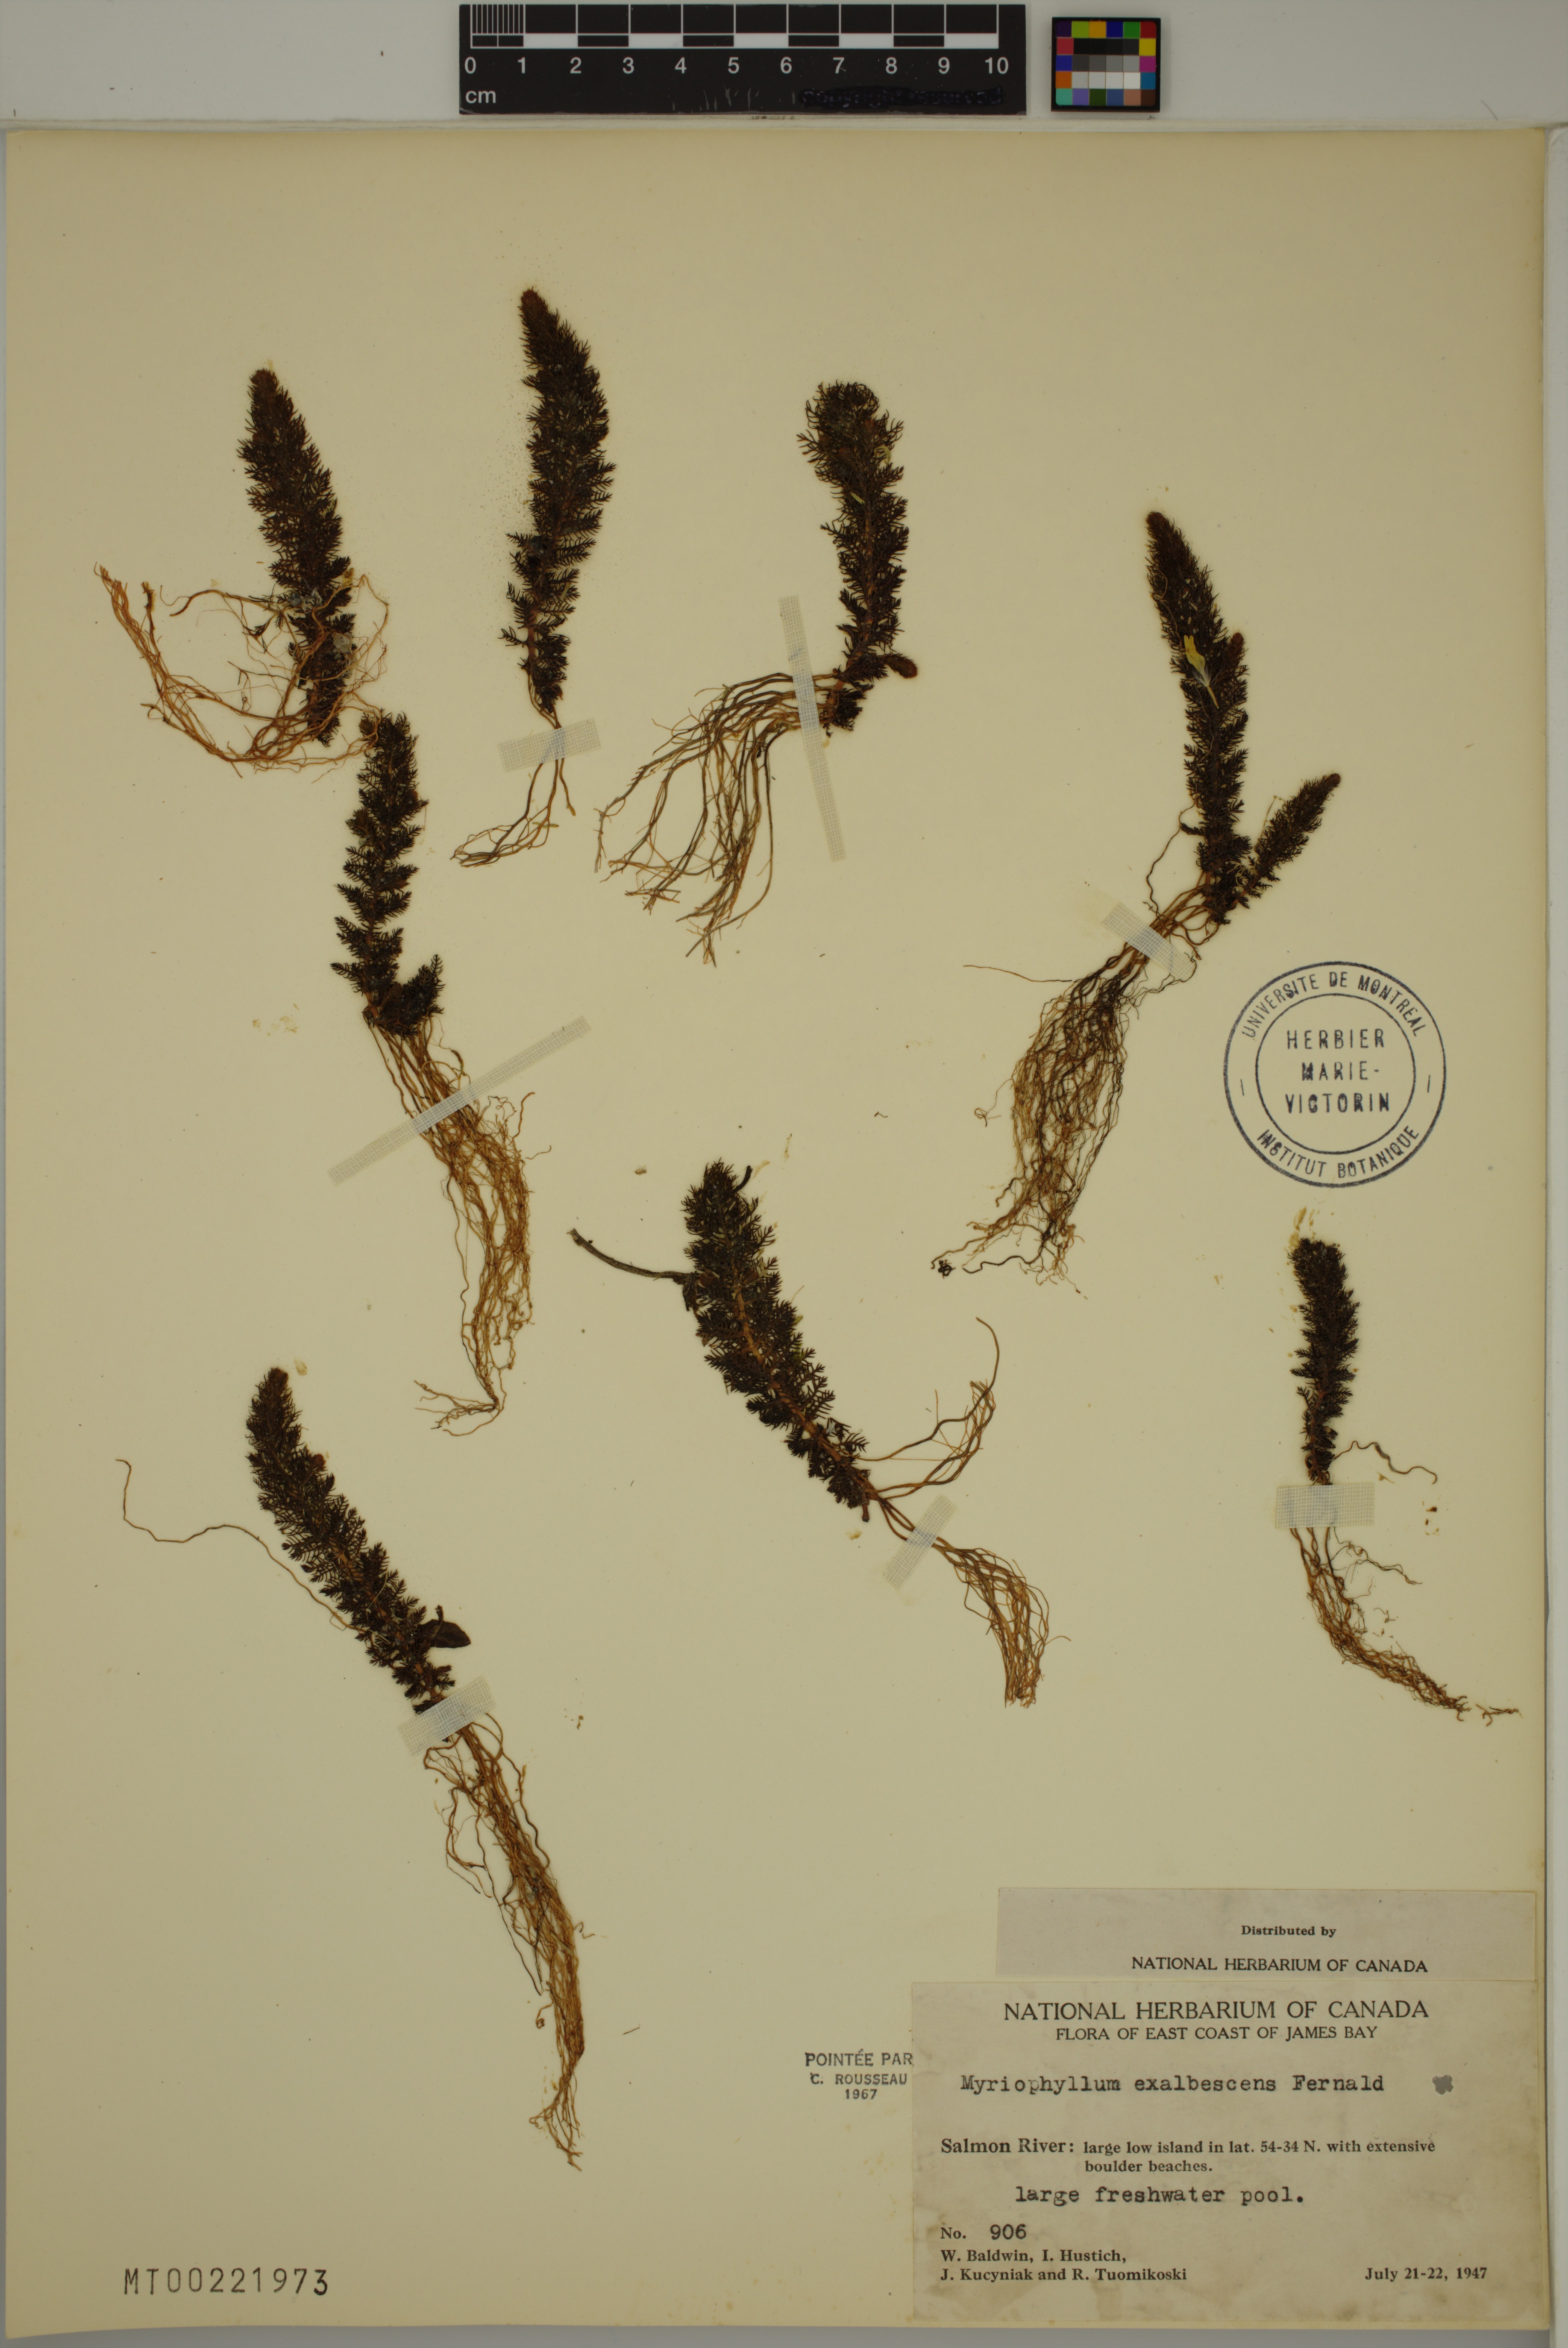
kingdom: Plantae
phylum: Tracheophyta
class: Magnoliopsida
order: Saxifragales
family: Haloragaceae
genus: Myriophyllum
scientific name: Myriophyllum sibiricum
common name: Siberian water-milfoil
